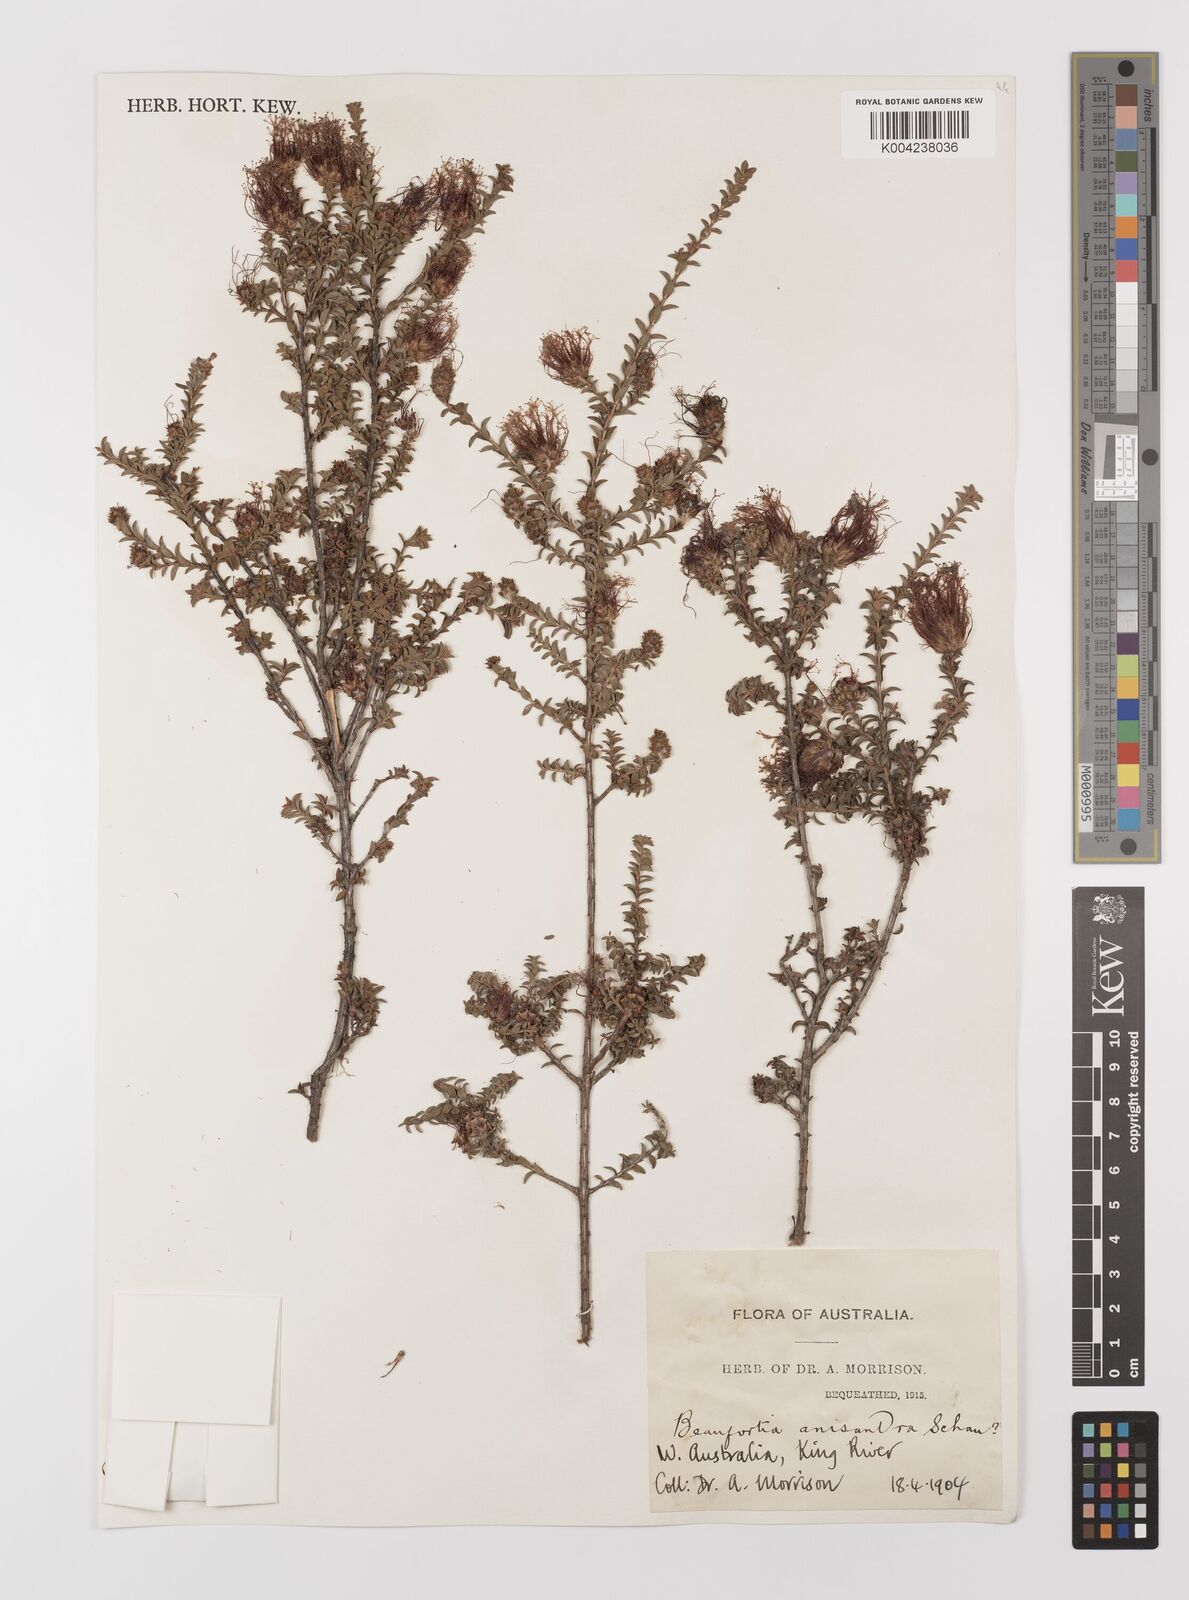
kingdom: Plantae
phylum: Tracheophyta
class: Magnoliopsida
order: Myrtales
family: Myrtaceae
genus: Melaleuca
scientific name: Melaleuca anisandra
